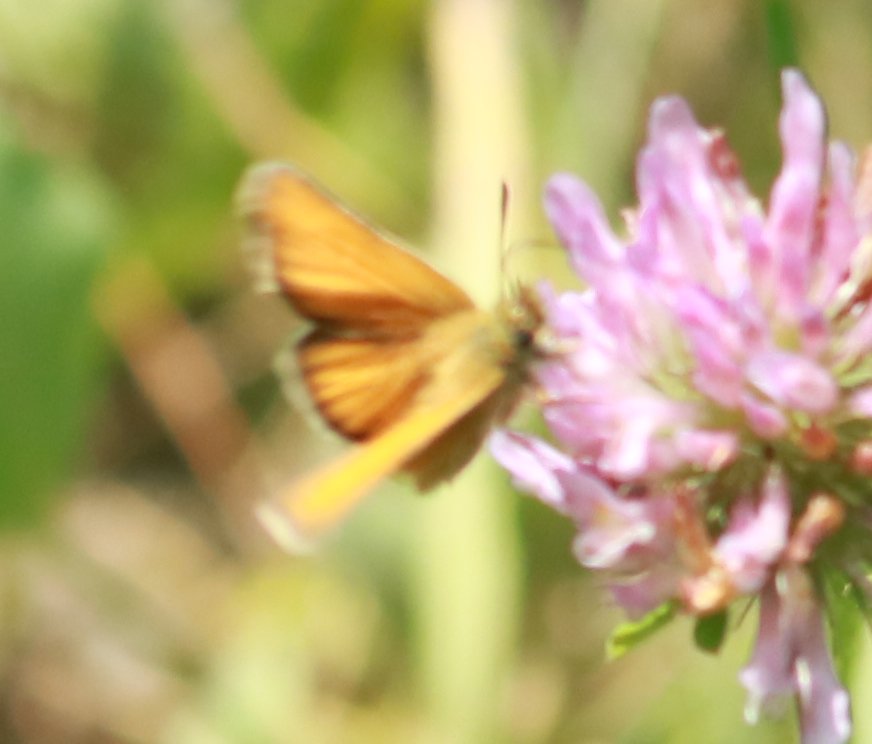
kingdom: Animalia
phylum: Arthropoda
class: Insecta
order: Lepidoptera
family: Hesperiidae
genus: Thymelicus
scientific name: Thymelicus lineola
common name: European Skipper
